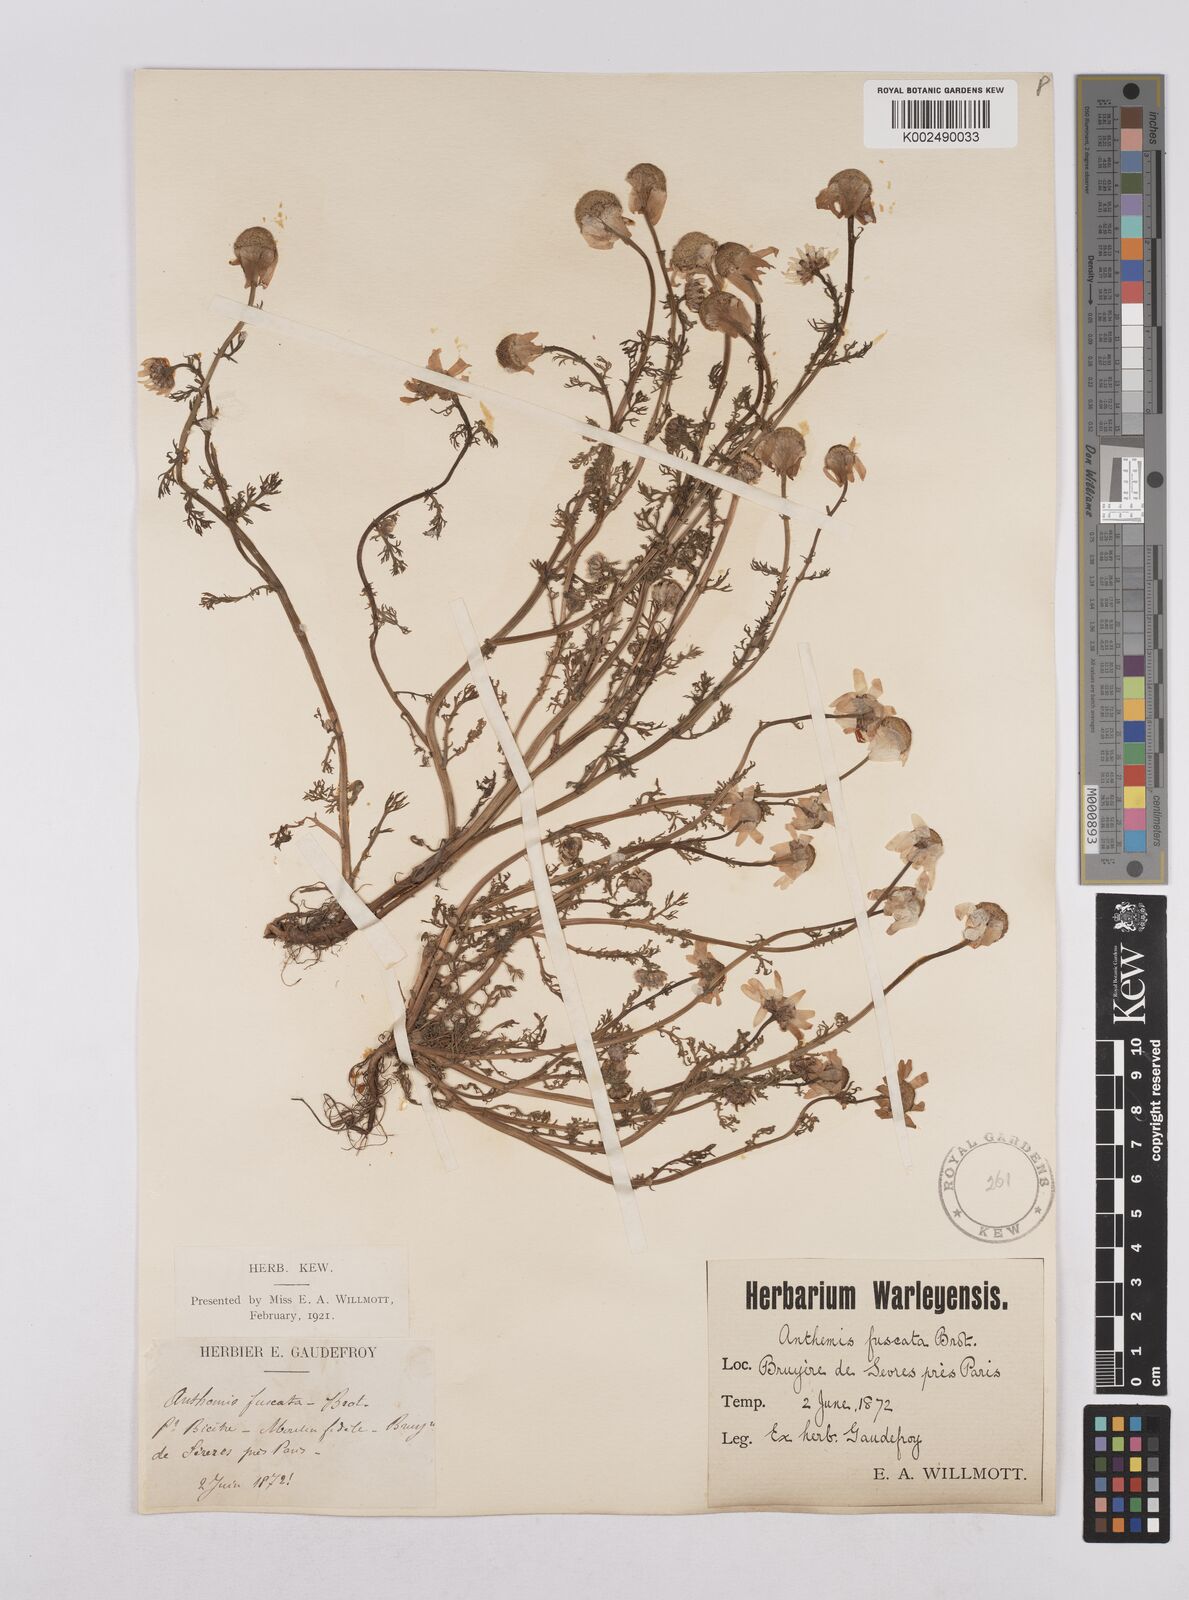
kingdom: Plantae
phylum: Tracheophyta
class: Magnoliopsida
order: Asterales
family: Asteraceae
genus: Chamaemelum
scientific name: Chamaemelum fuscatum
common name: Chamomile
